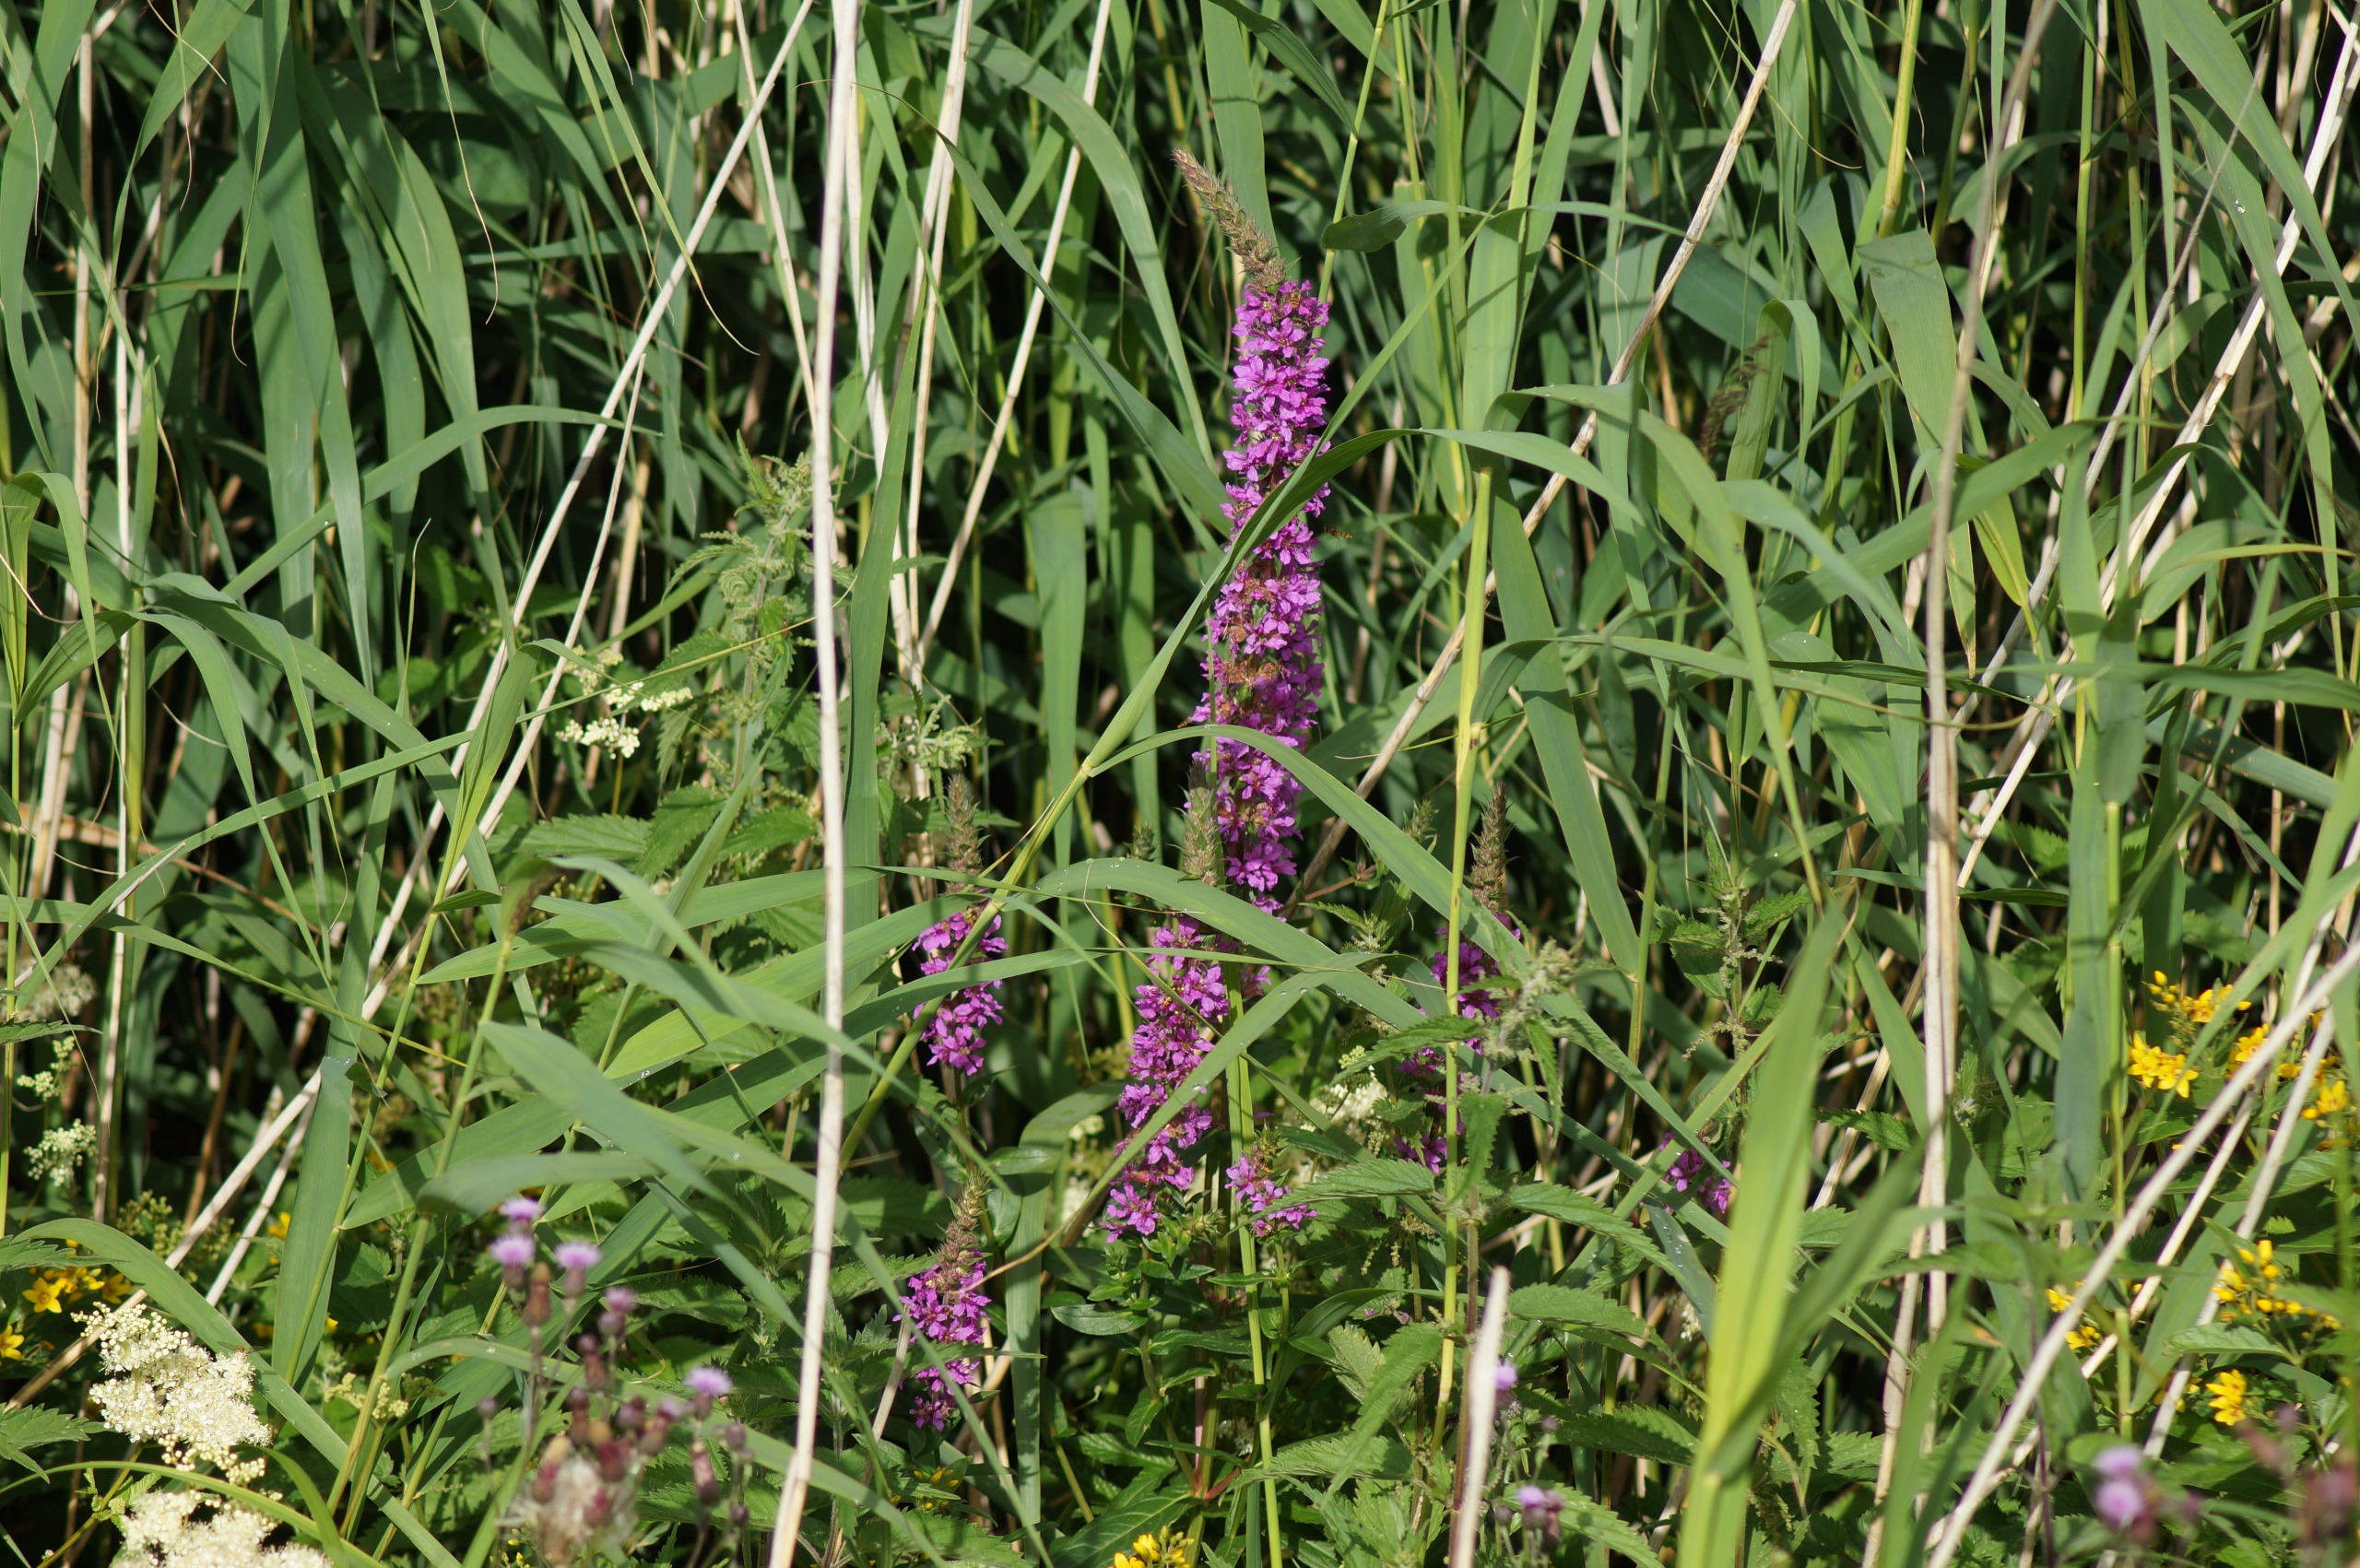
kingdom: Plantae
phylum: Tracheophyta
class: Magnoliopsida
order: Myrtales
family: Lythraceae
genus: Lythrum
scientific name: Lythrum salicaria
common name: Kattehale
